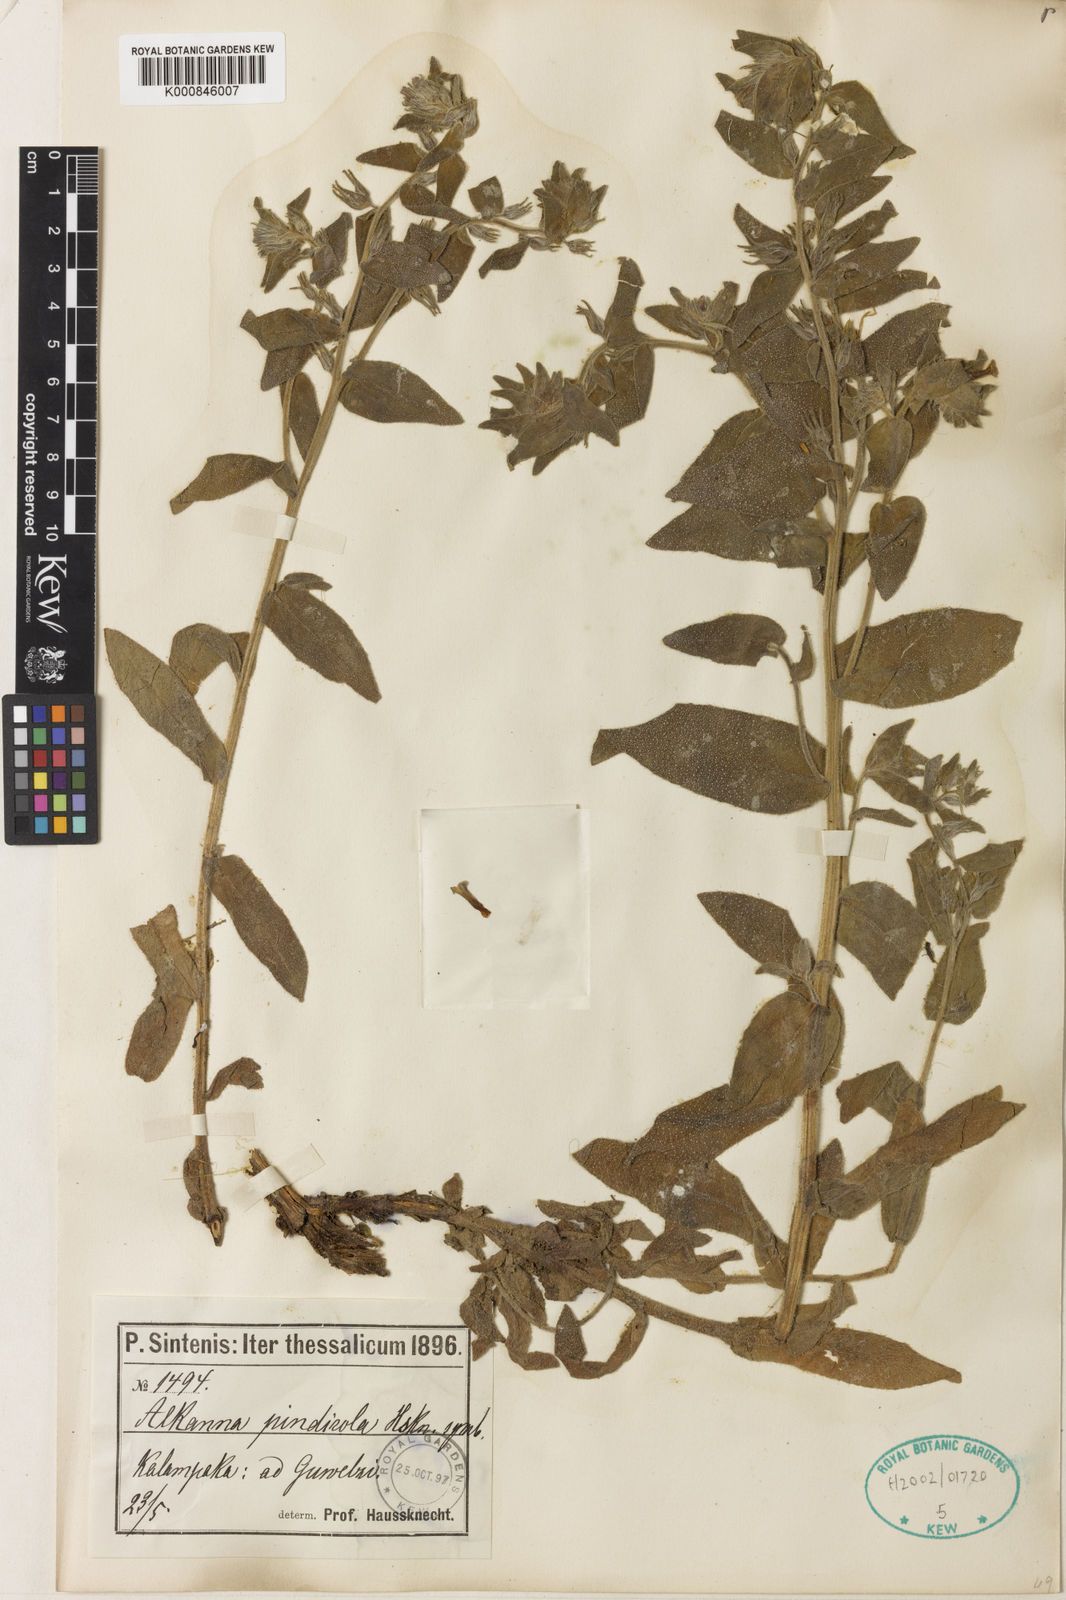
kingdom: Plantae
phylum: Tracheophyta
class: Magnoliopsida
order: Boraginales
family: Boraginaceae
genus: Alkanna
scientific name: Alkanna pindicola
